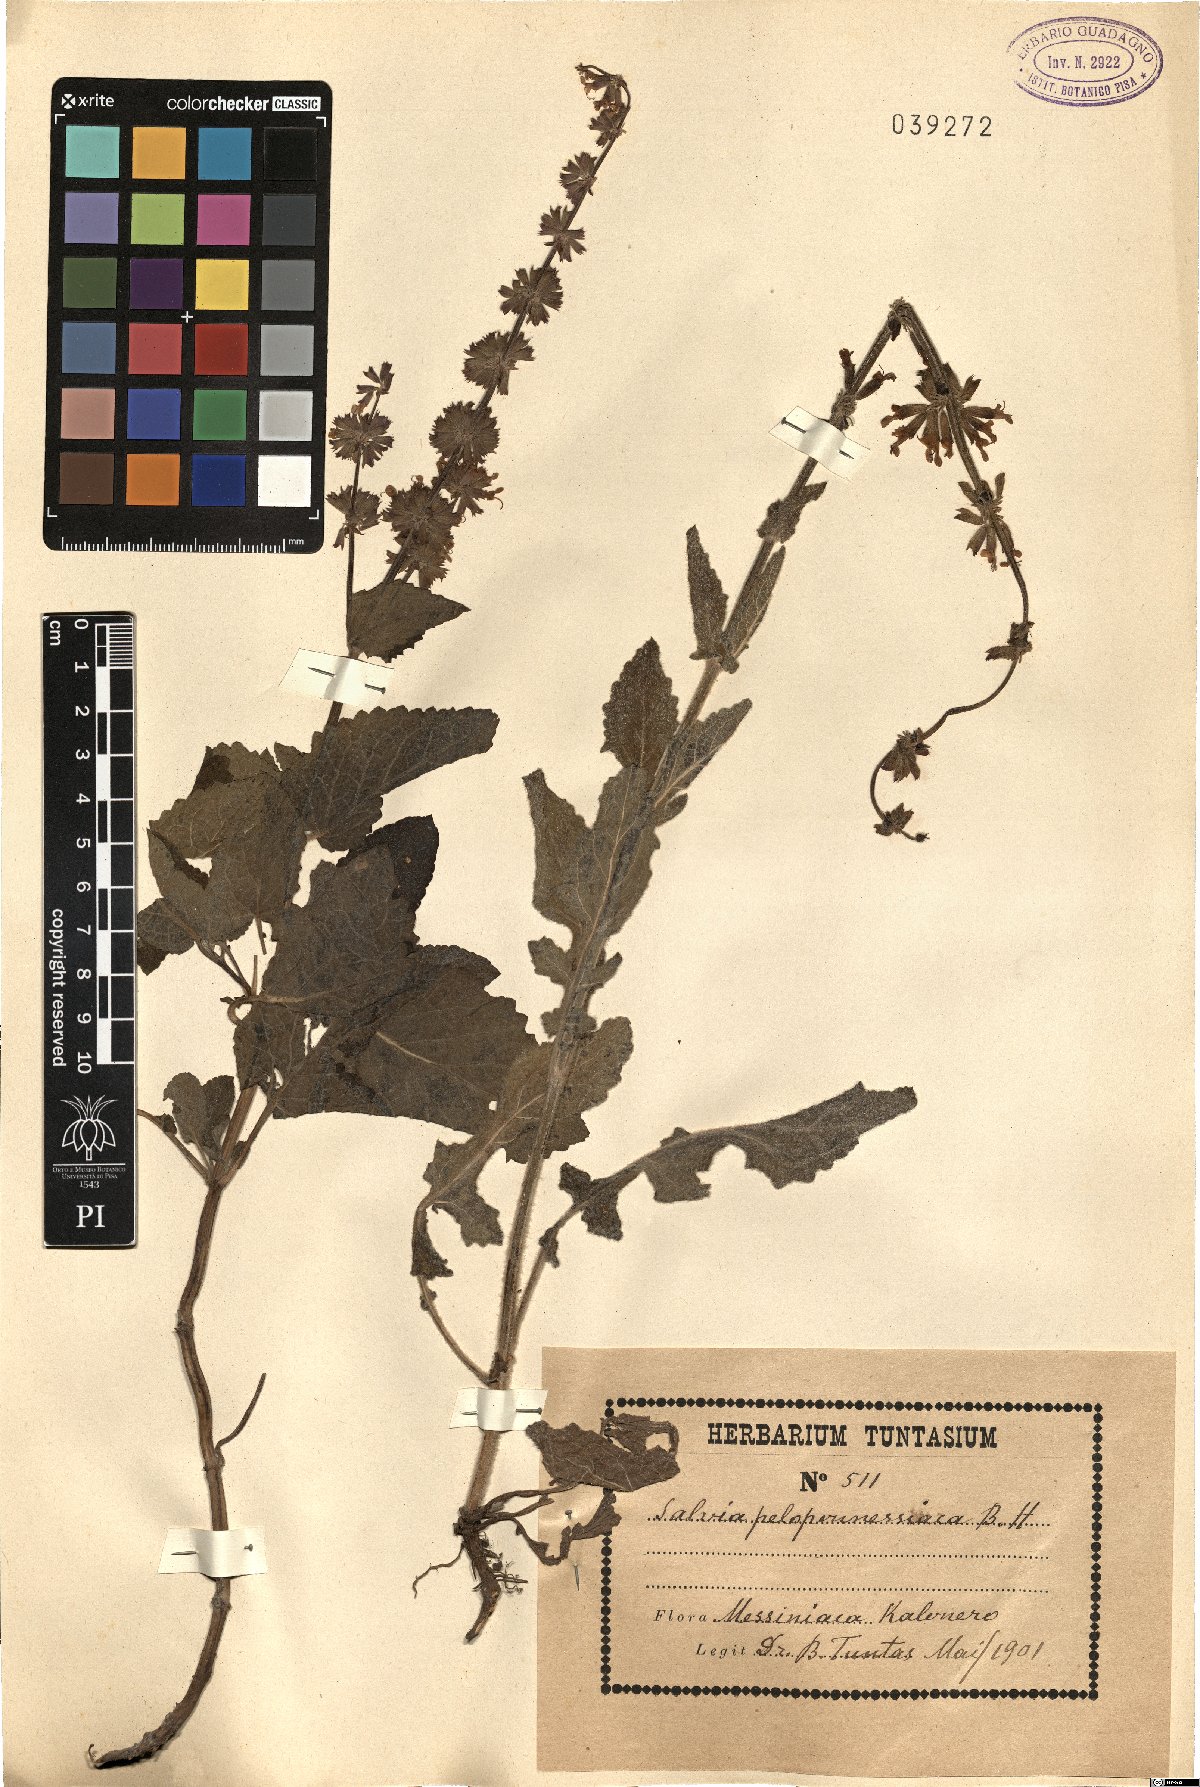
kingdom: Plantae
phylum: Tracheophyta
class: Magnoliopsida
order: Lamiales
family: Lamiaceae
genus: Salvia
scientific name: Salvia verticillata
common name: Whorled clary
